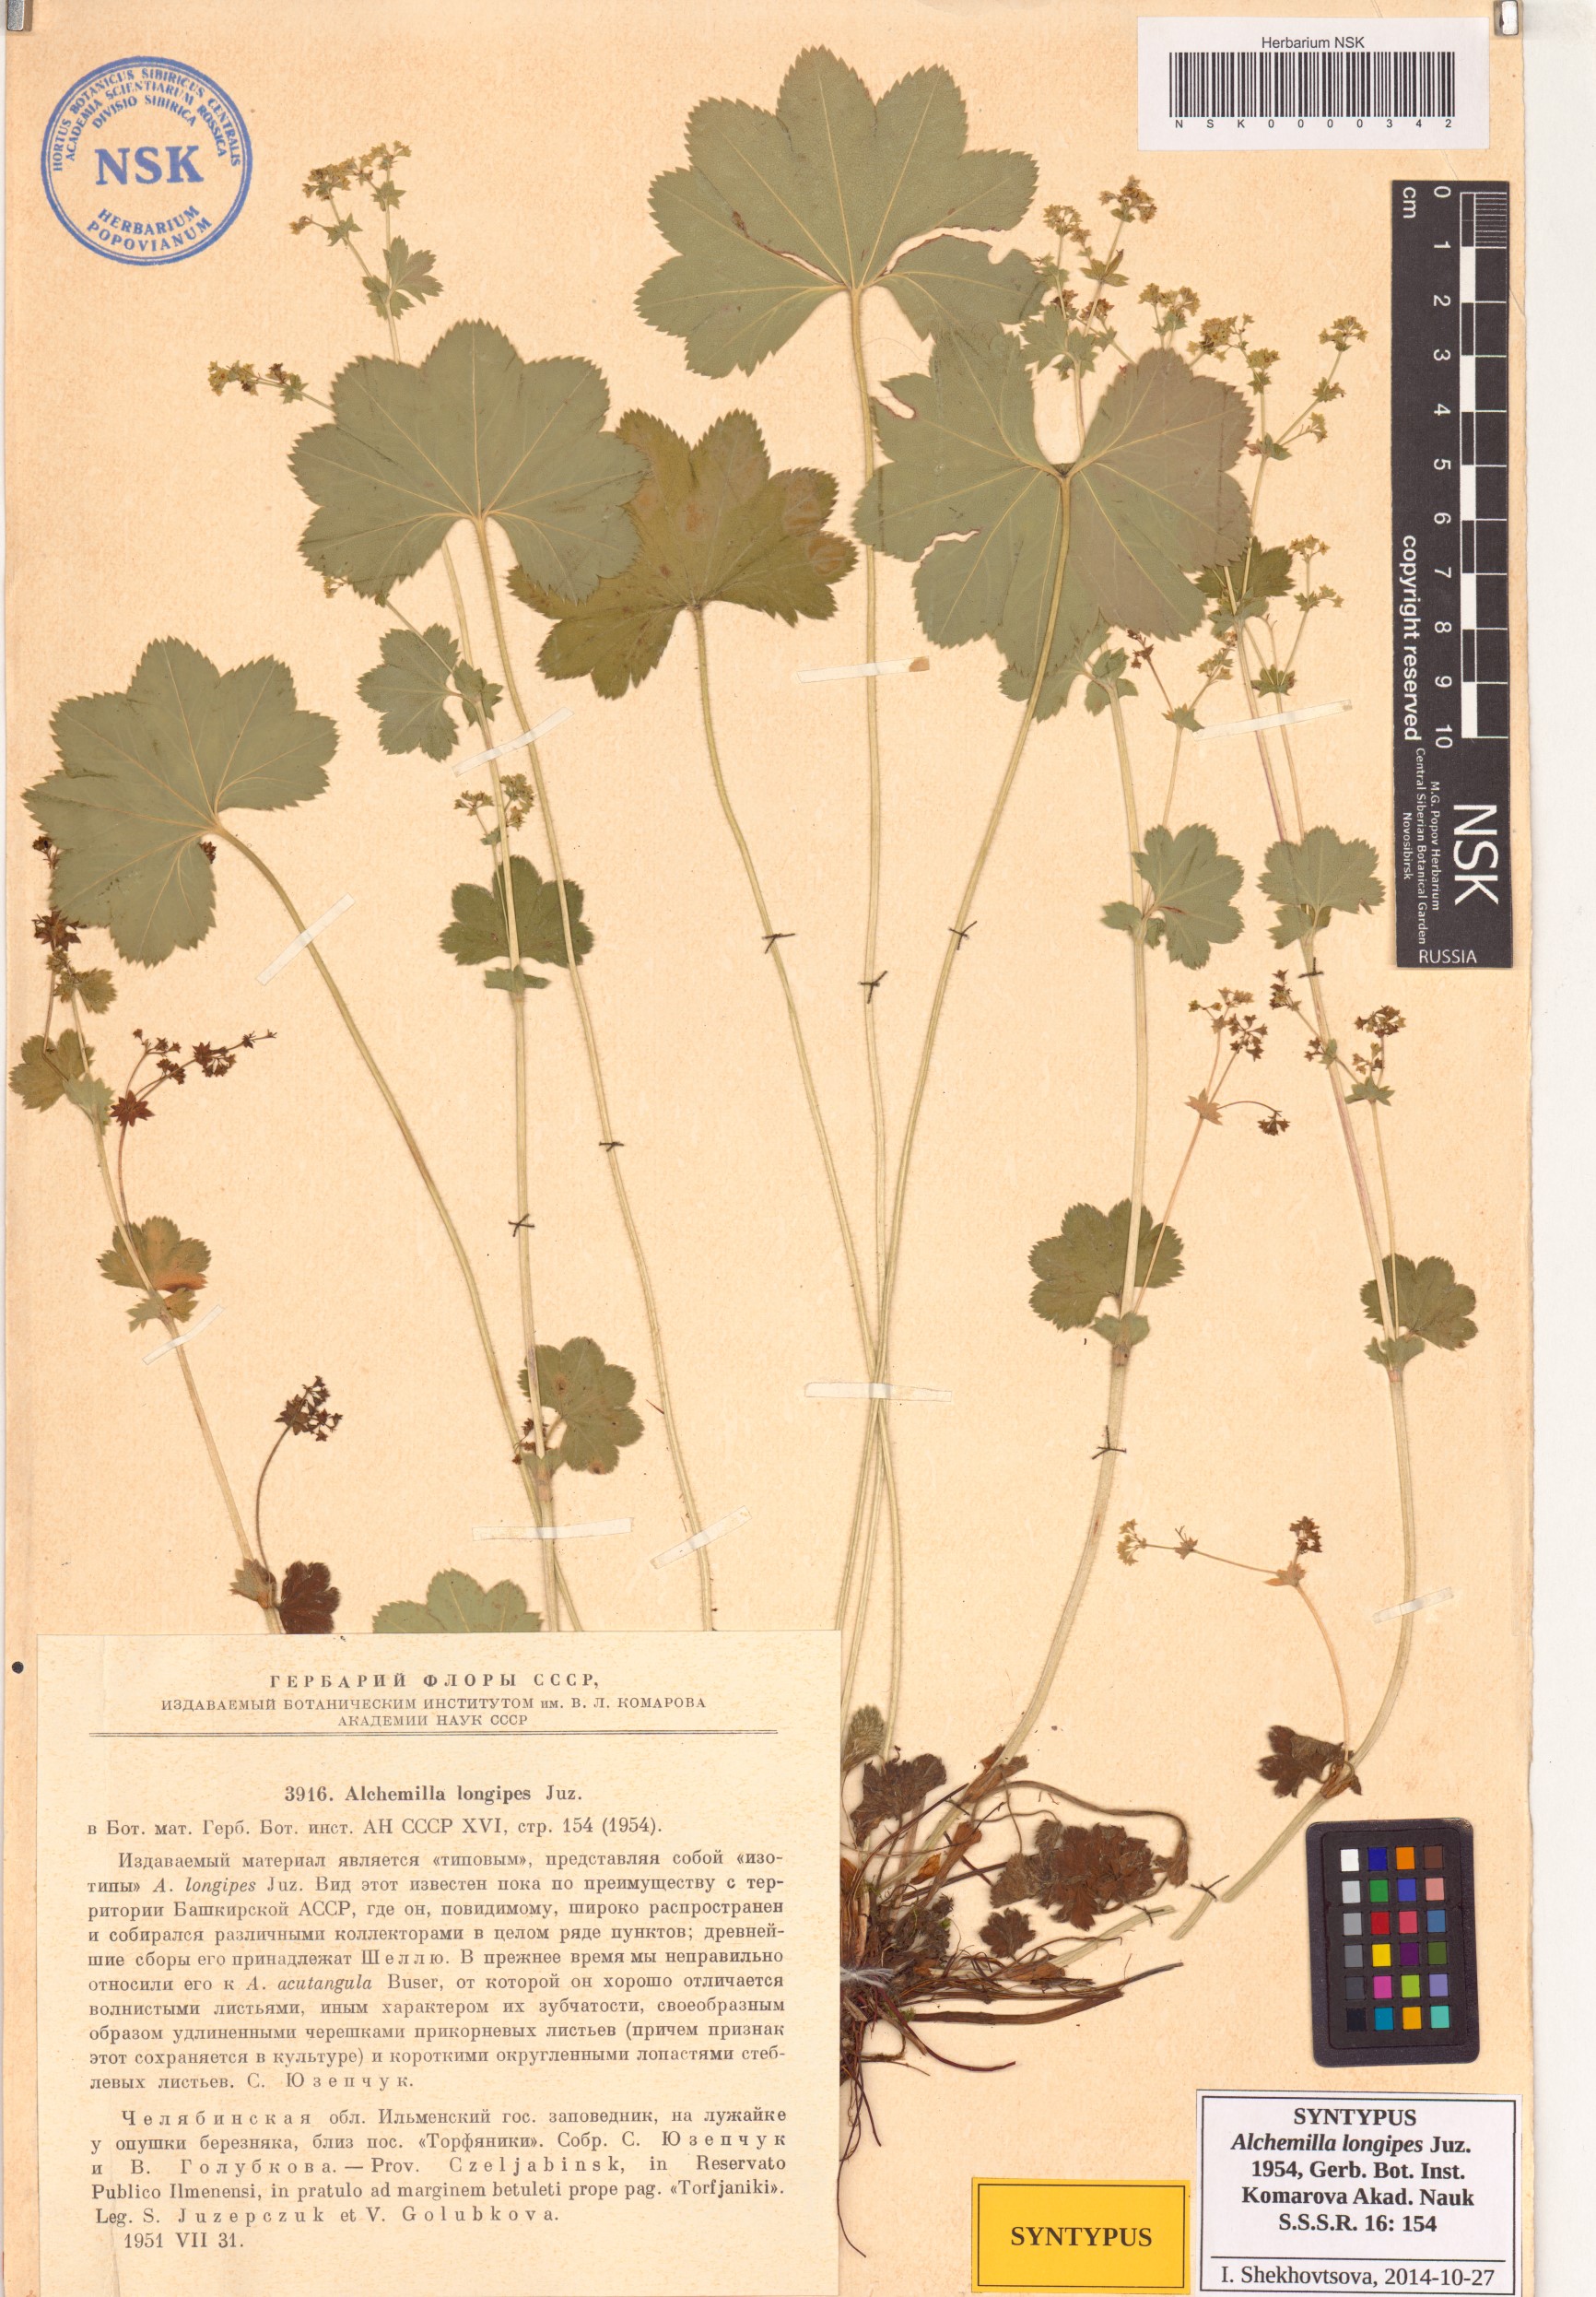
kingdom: Plantae
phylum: Tracheophyta
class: Magnoliopsida
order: Rosales
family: Rosaceae
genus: Alchemilla
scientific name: Alchemilla longipes
